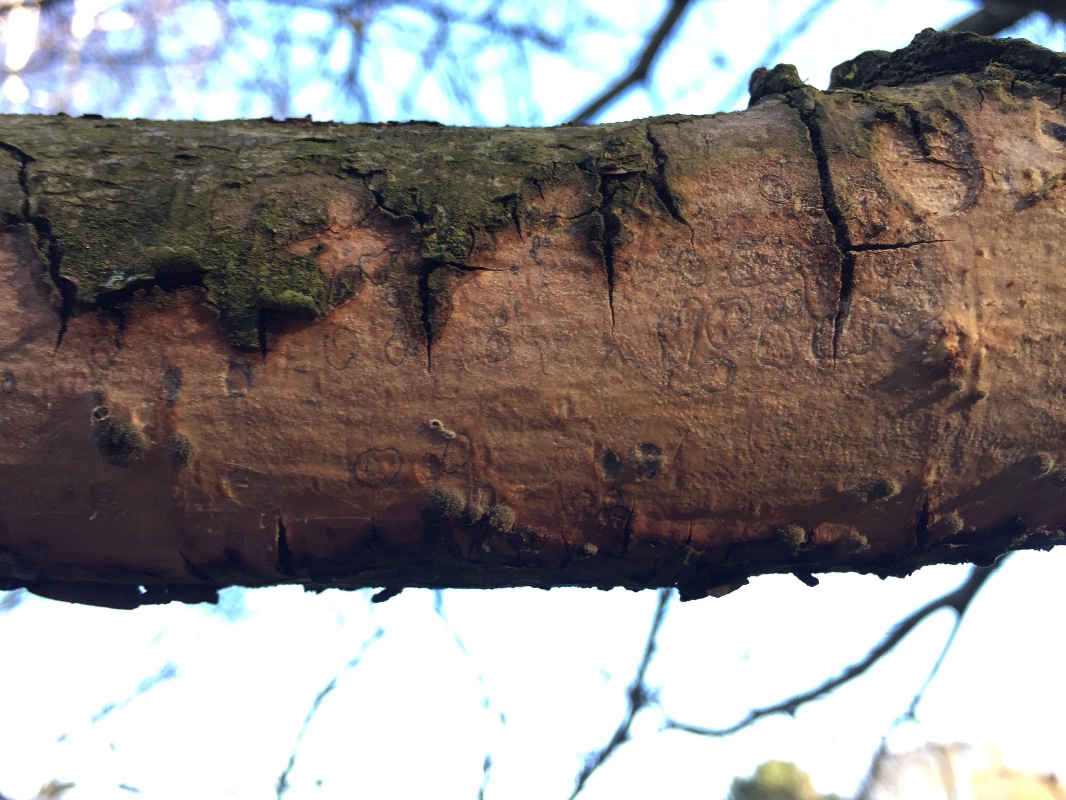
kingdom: Fungi
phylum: Basidiomycota
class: Agaricomycetes
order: Corticiales
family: Vuilleminiaceae
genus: Vuilleminia
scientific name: Vuilleminia comedens
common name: almindelig barksprænger
